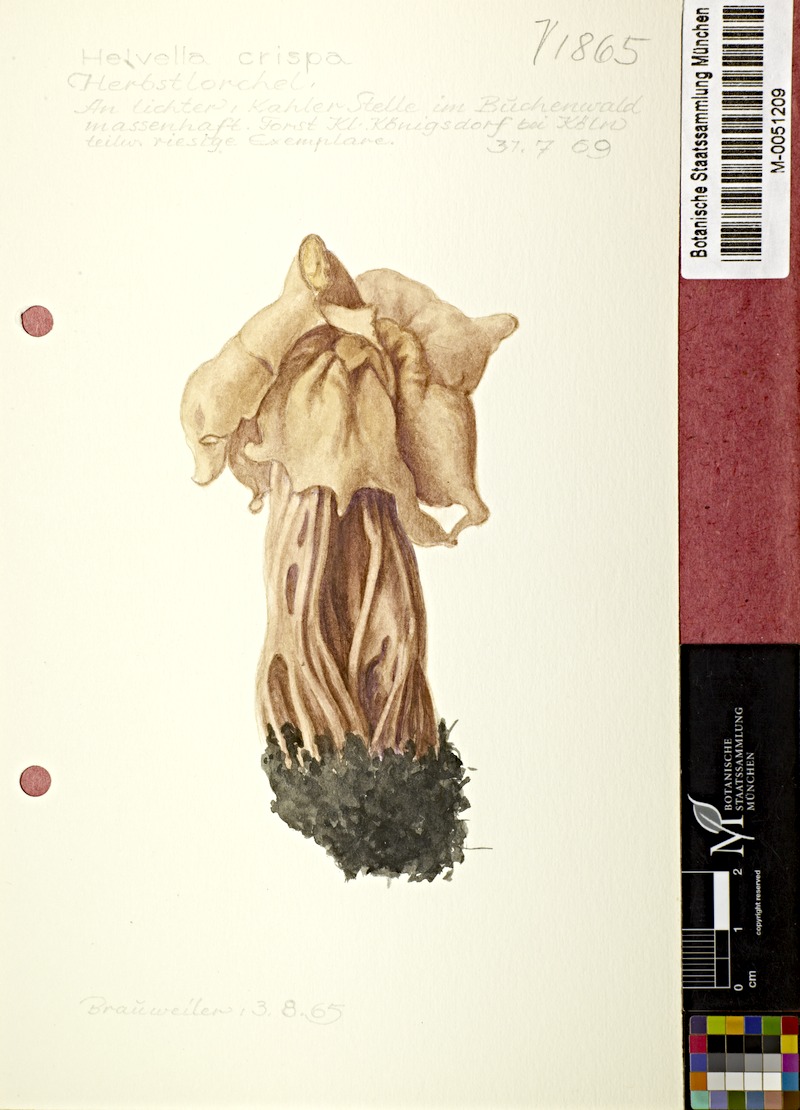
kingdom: Fungi
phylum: Ascomycota
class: Pezizomycetes
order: Pezizales
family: Helvellaceae
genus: Helvella
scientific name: Helvella crispa
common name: White saddle
